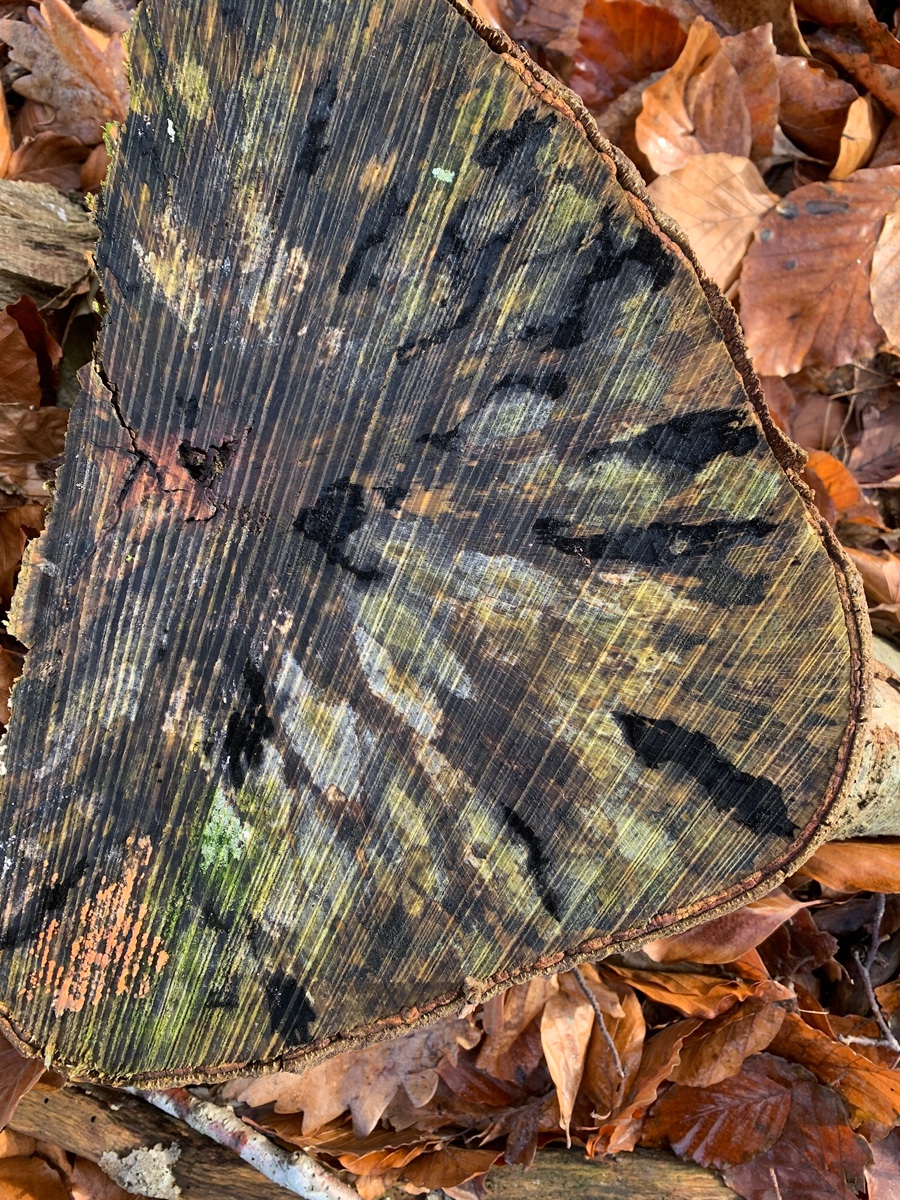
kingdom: Fungi
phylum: Ascomycota
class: Leotiomycetes
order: Helotiales
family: Helotiaceae
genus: Bispora
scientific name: Bispora pallescens
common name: måtte-snitskive
